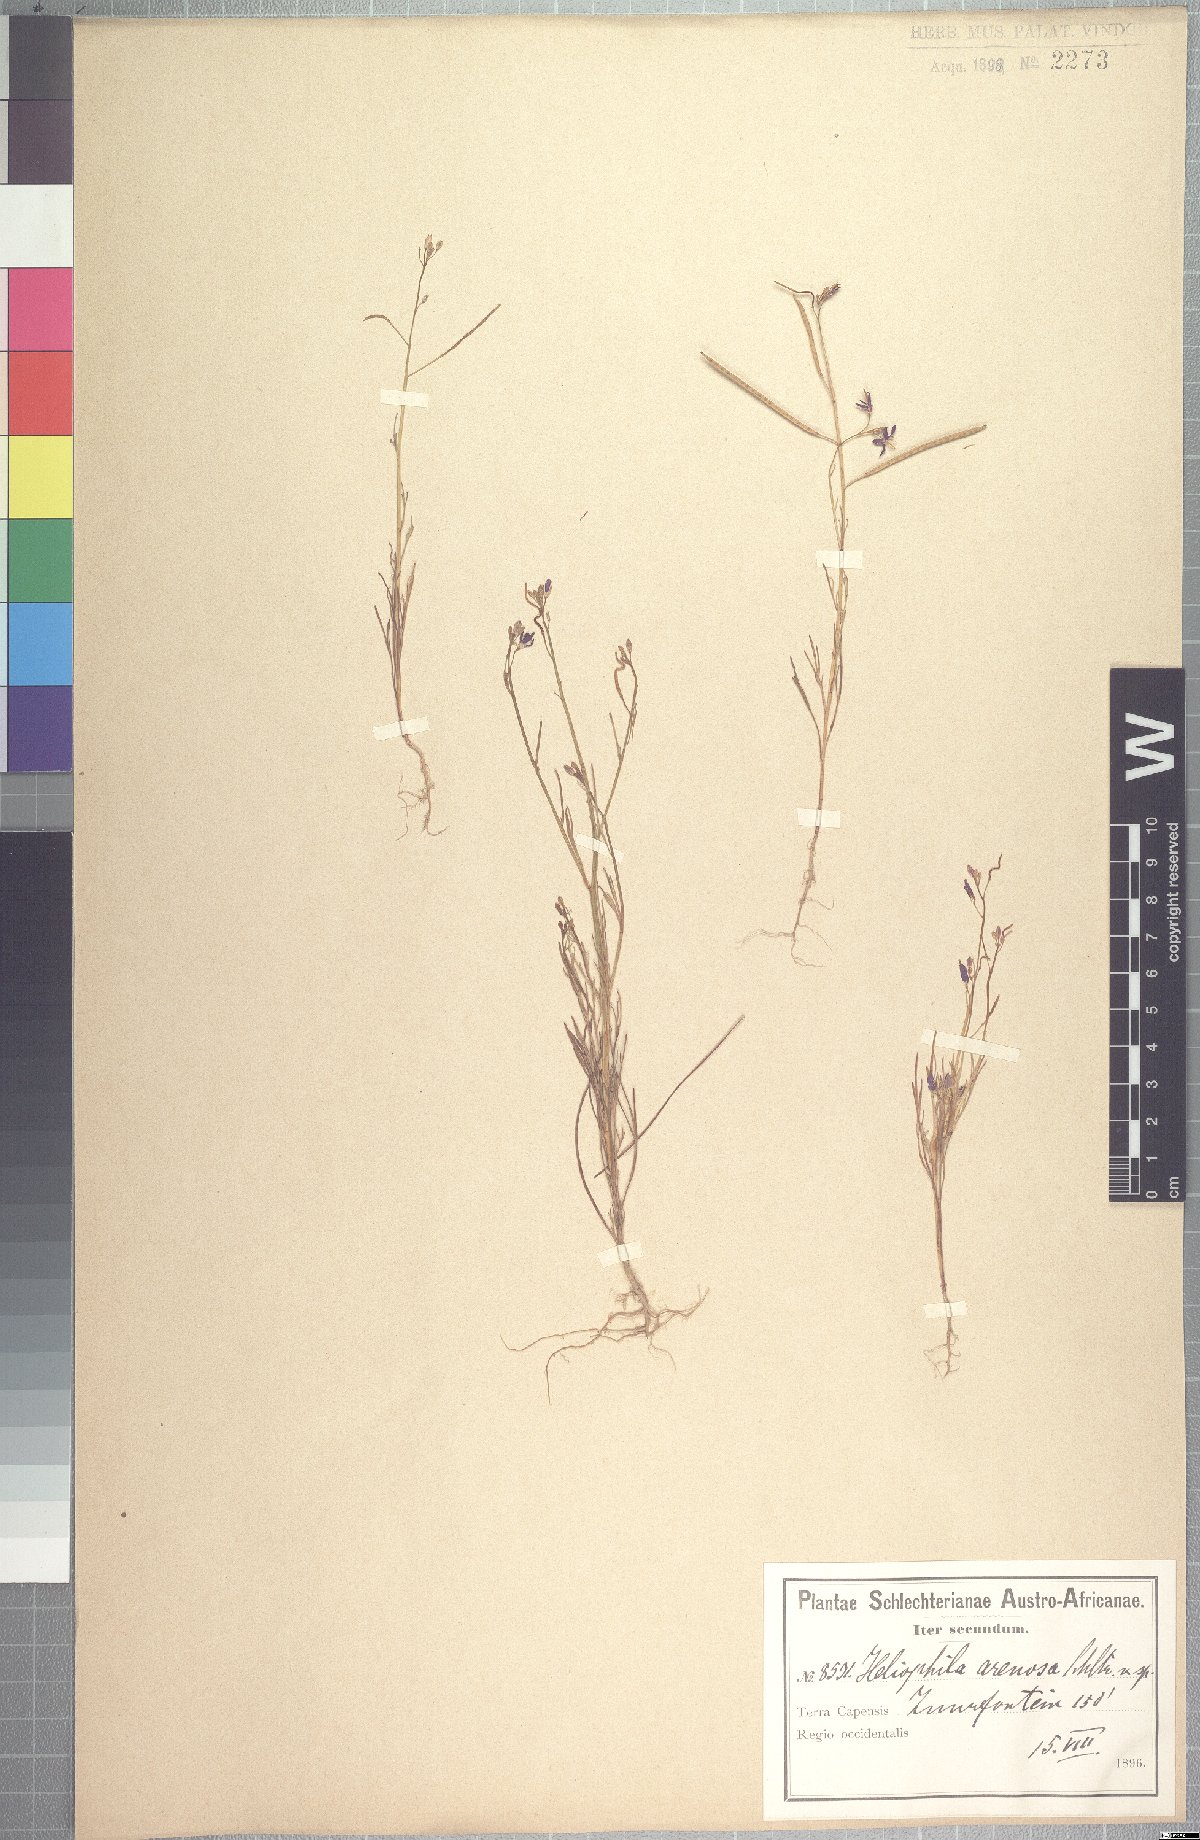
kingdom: Plantae
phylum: Tracheophyta
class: Magnoliopsida
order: Brassicales
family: Brassicaceae
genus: Heliophila
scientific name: Heliophila arenosa
